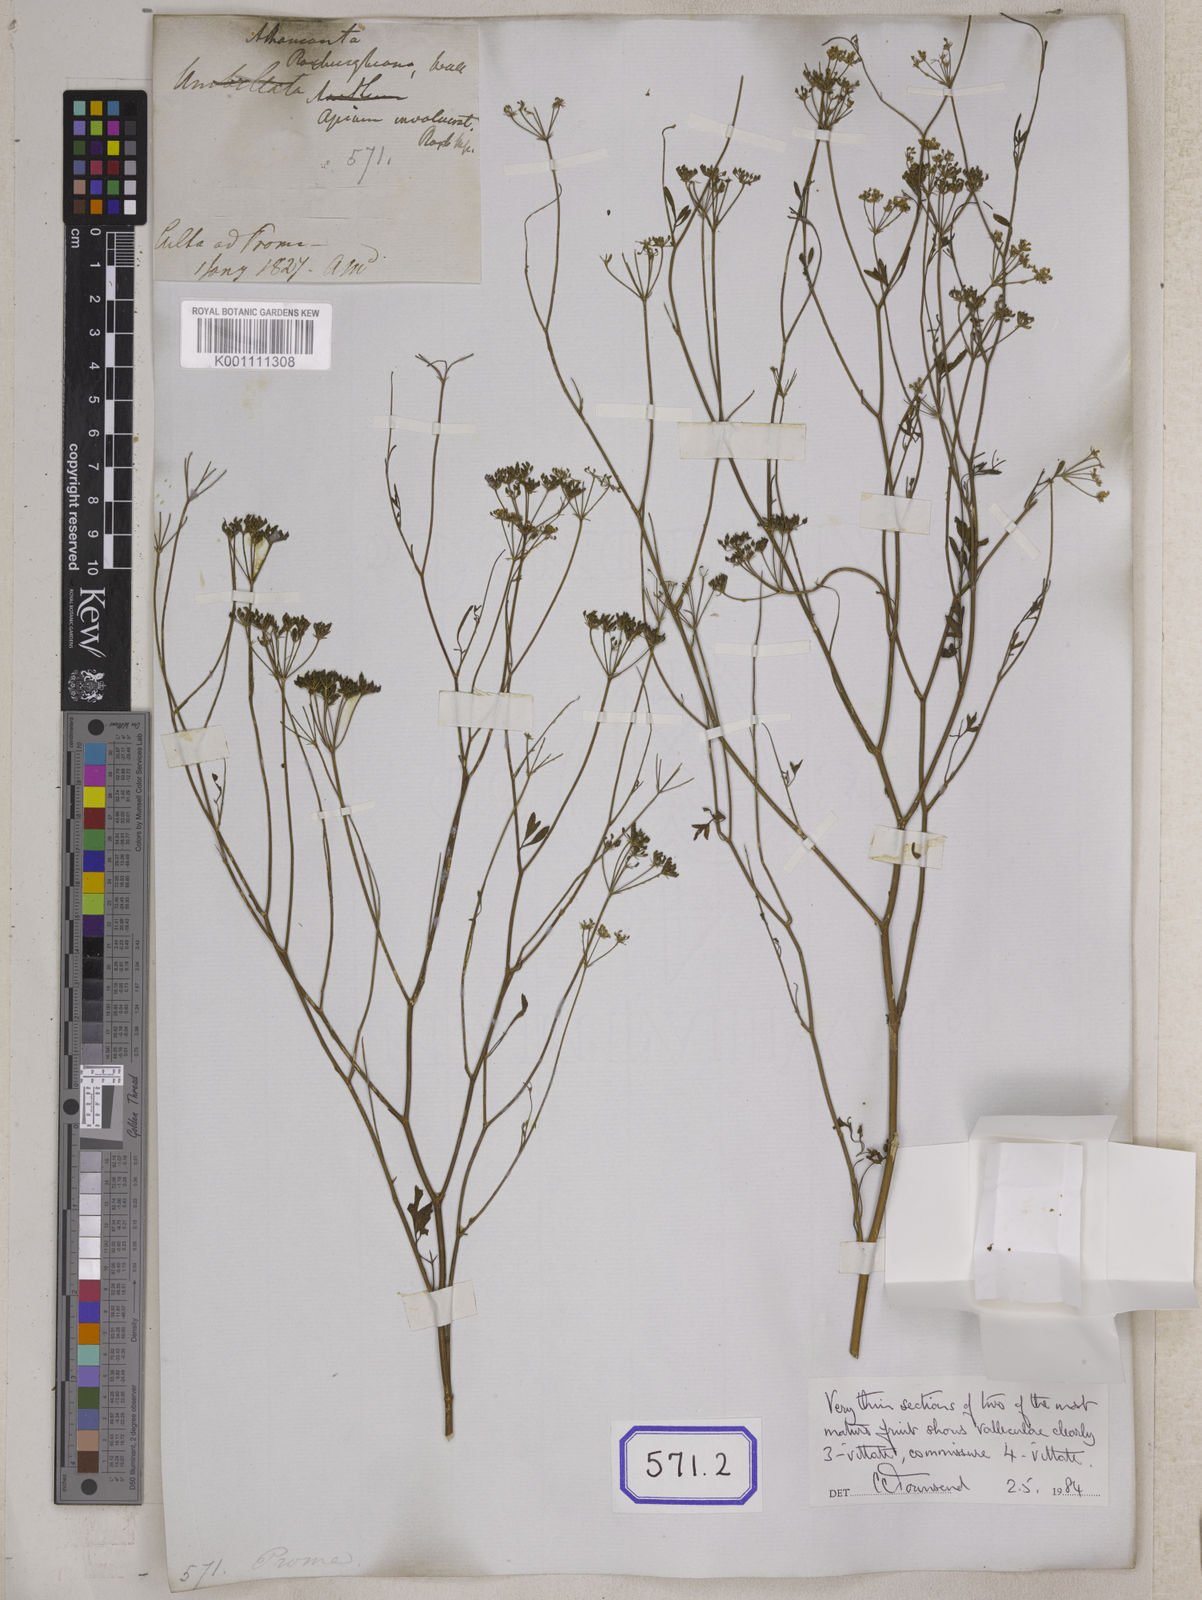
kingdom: Plantae
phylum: Tracheophyta
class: Magnoliopsida
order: Apiales
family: Apiaceae
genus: Psammogeton
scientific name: Psammogeton involucratum
